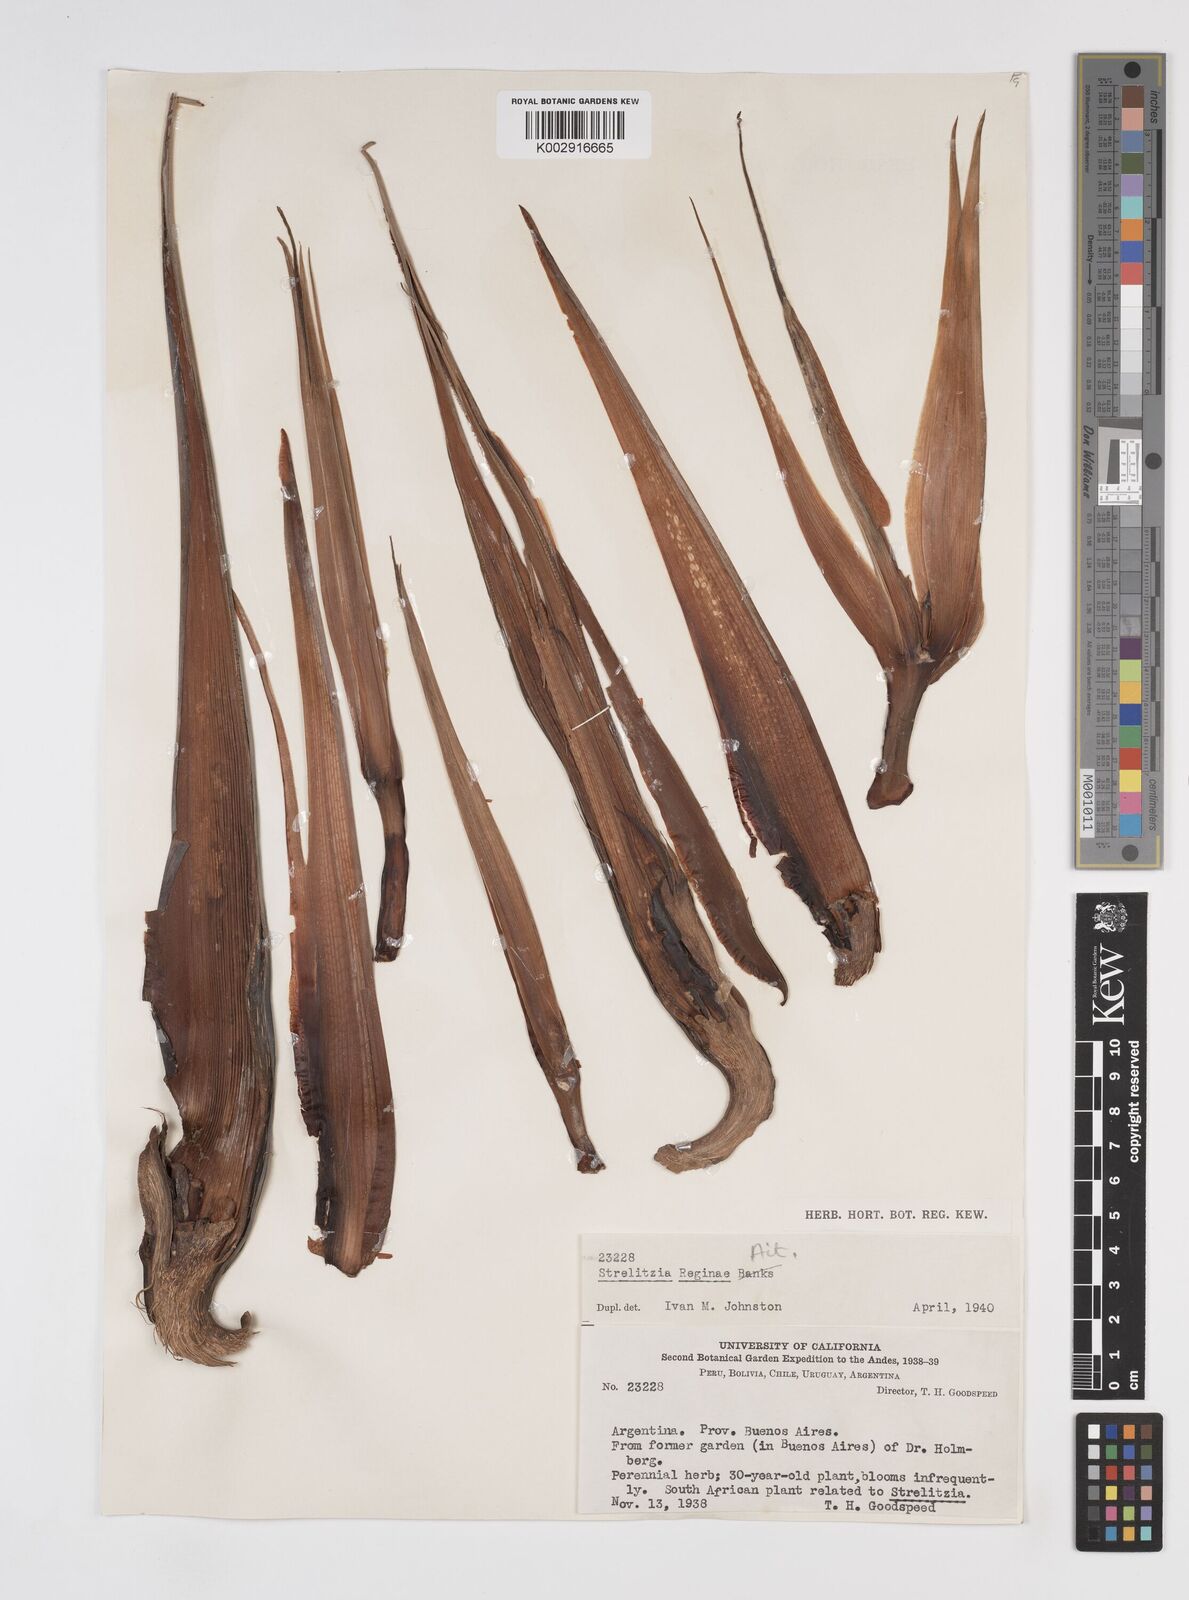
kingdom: Plantae
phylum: Tracheophyta
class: Liliopsida
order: Zingiberales
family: Strelitziaceae
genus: Strelitzia
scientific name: Strelitzia reginae
